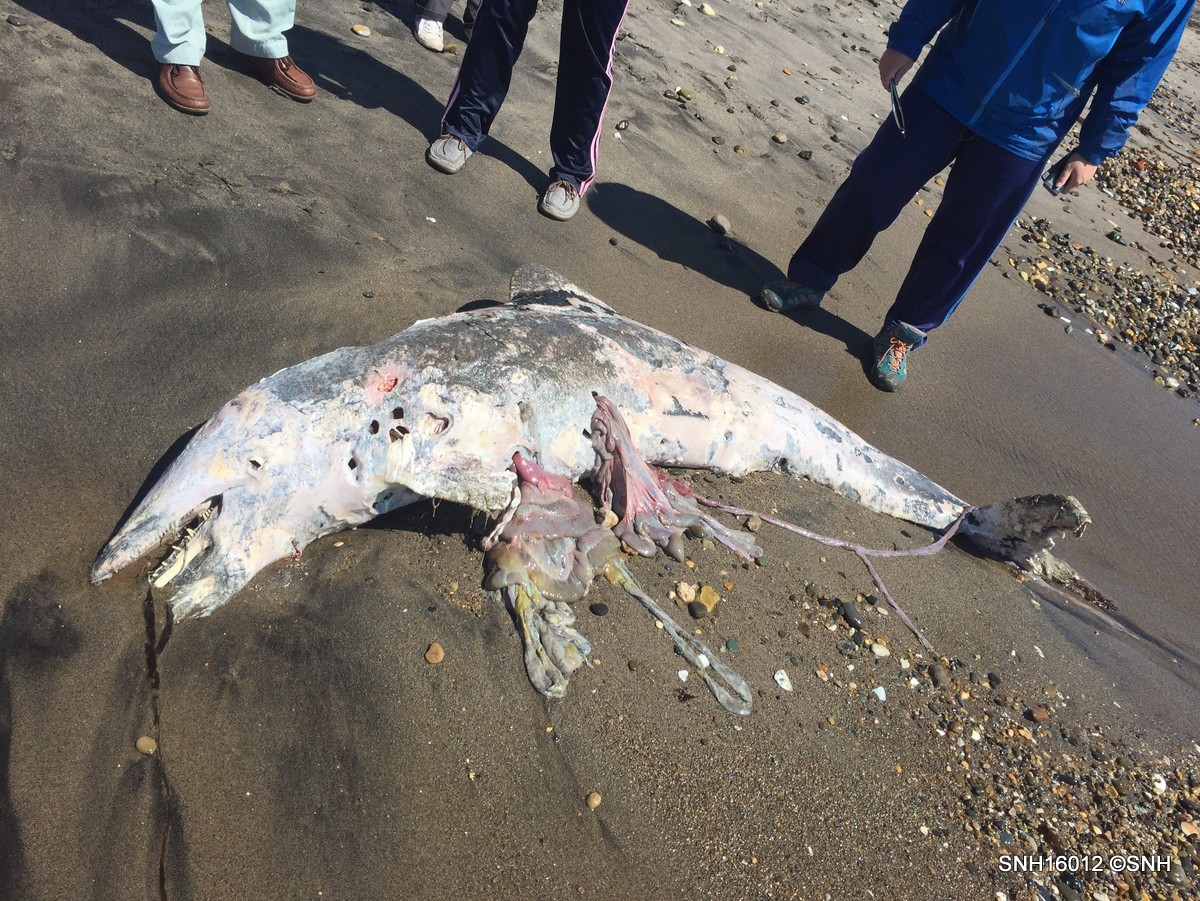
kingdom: Animalia
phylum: Chordata
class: Mammalia
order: Cetacea
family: Delphinidae
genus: Lagenorhynchus
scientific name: Lagenorhynchus obliquidens
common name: Pacific white-sided dolphin
